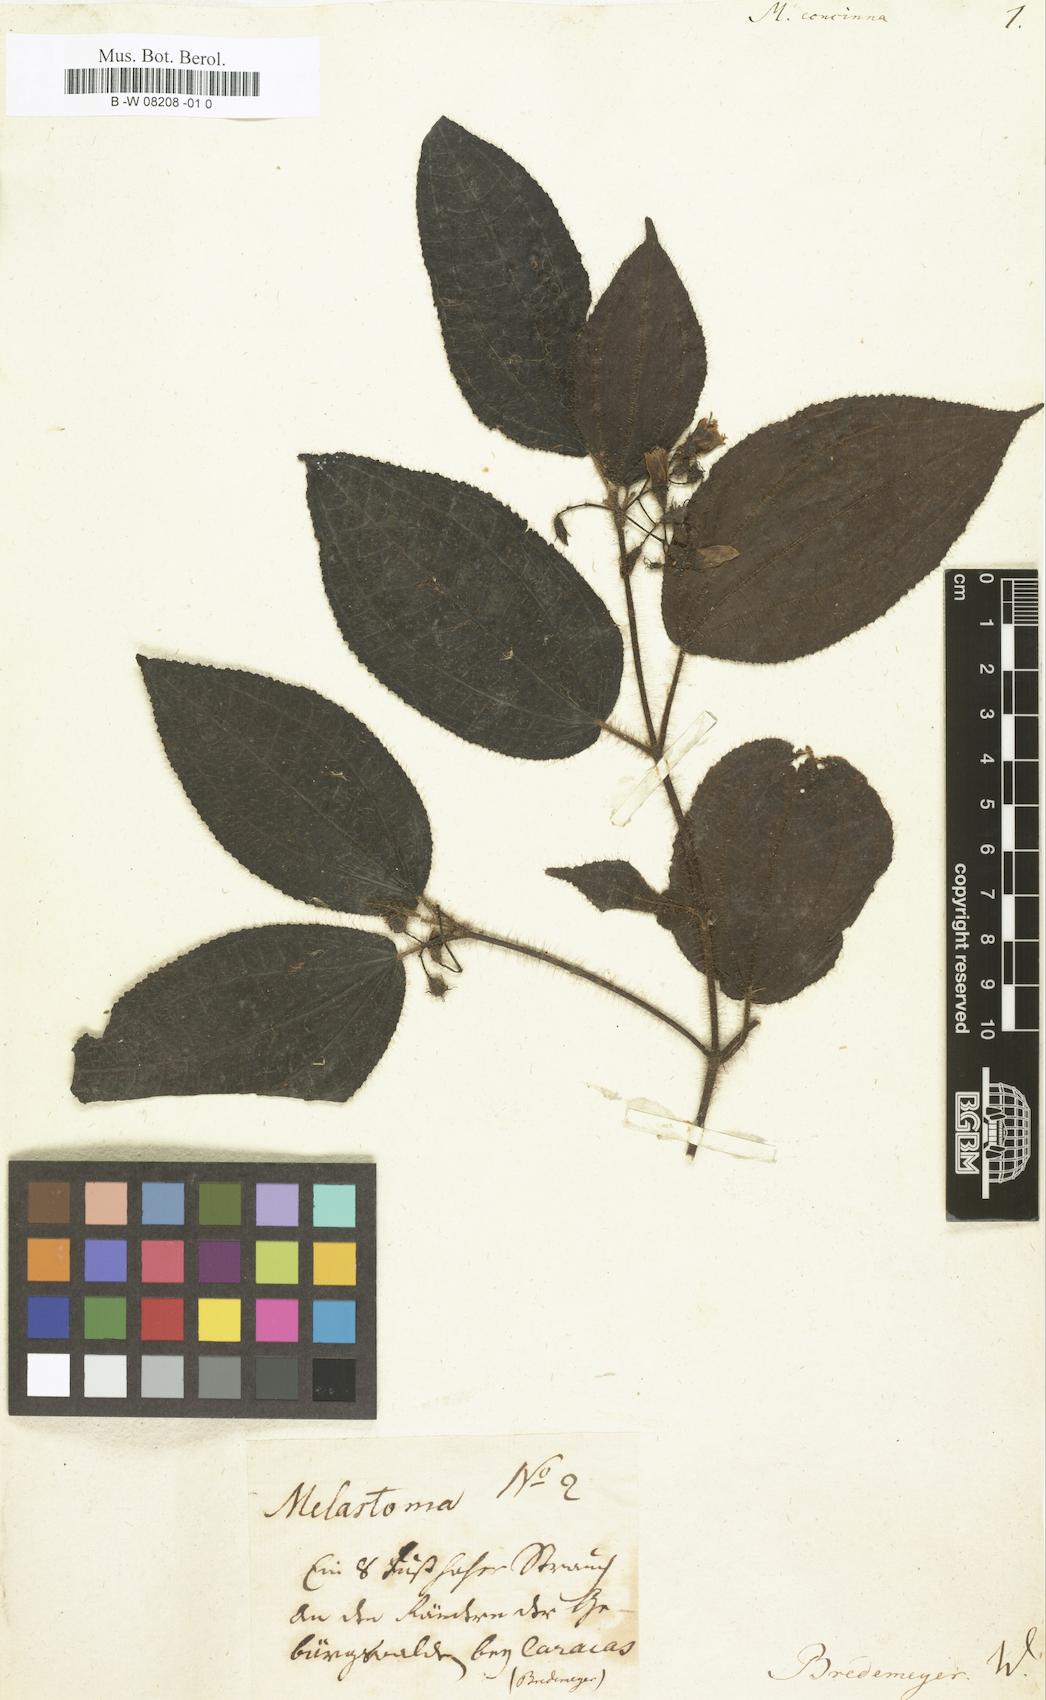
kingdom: Plantae
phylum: Tracheophyta
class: Magnoliopsida
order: Myrtales
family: Melastomataceae
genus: Melastoma
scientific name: Melastoma
